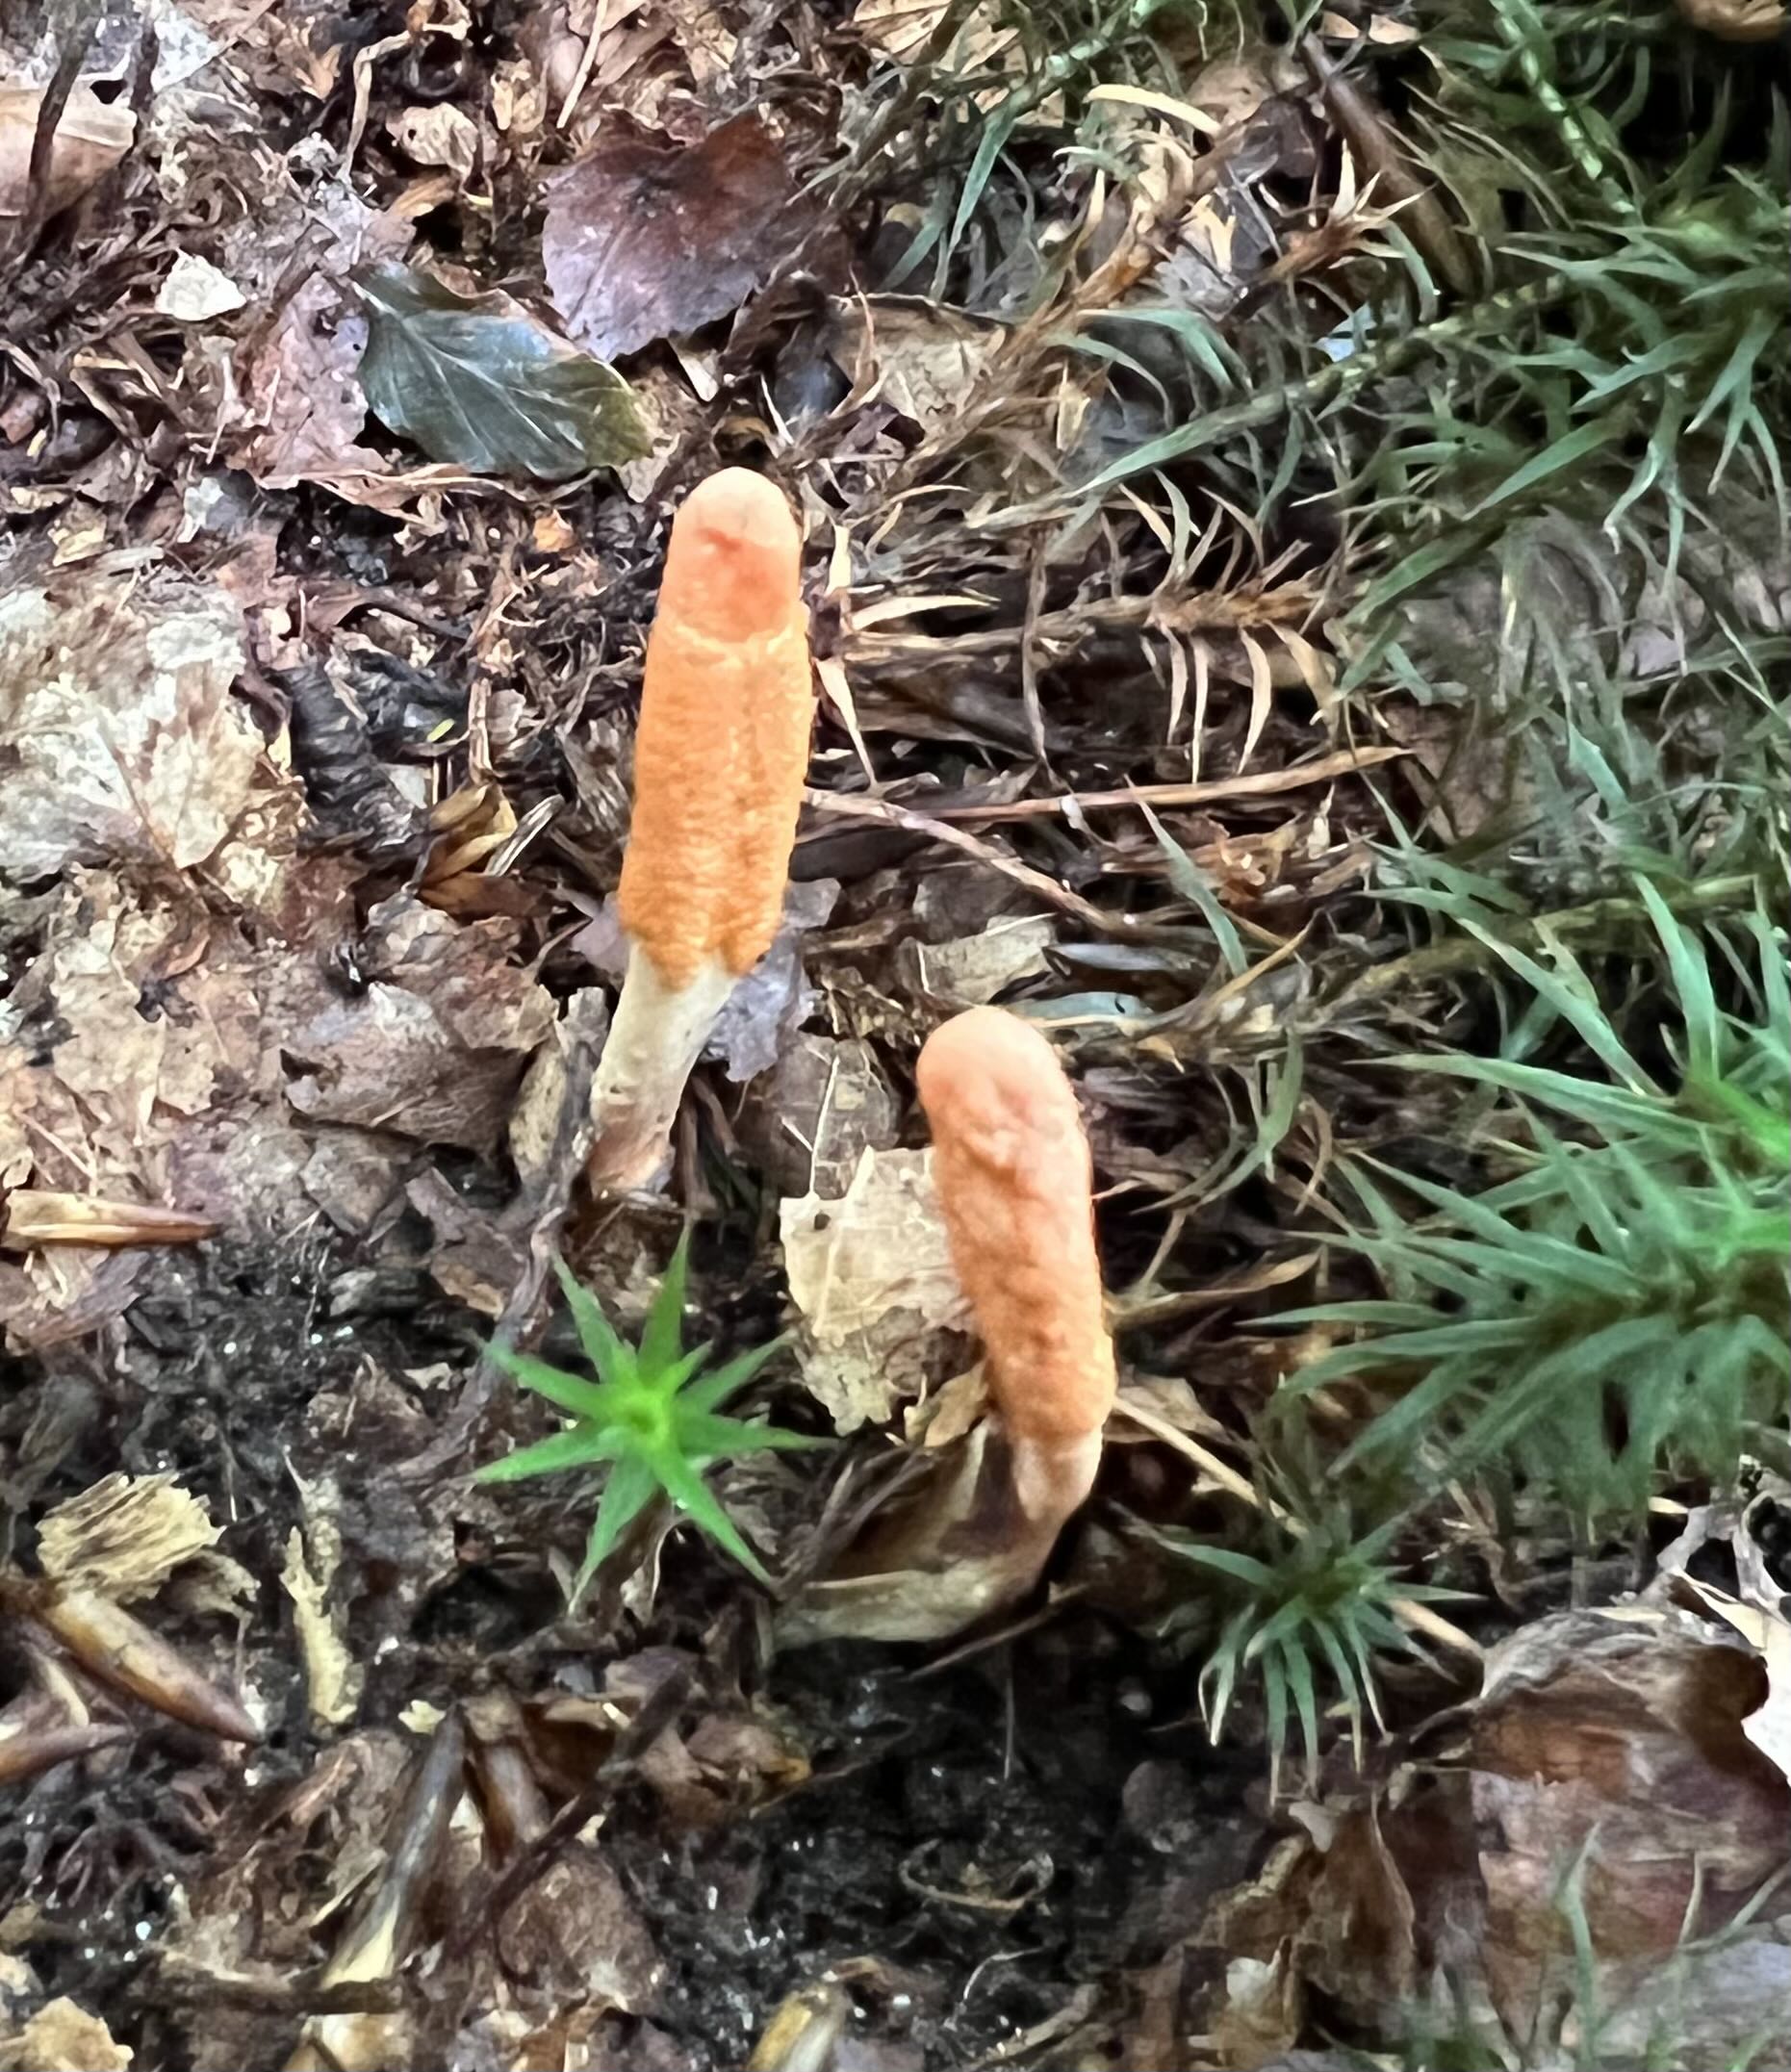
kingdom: Fungi
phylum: Ascomycota
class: Sordariomycetes
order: Hypocreales
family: Cordycipitaceae
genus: Cordyceps
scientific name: Cordyceps militaris
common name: puppe-snyltekølle
